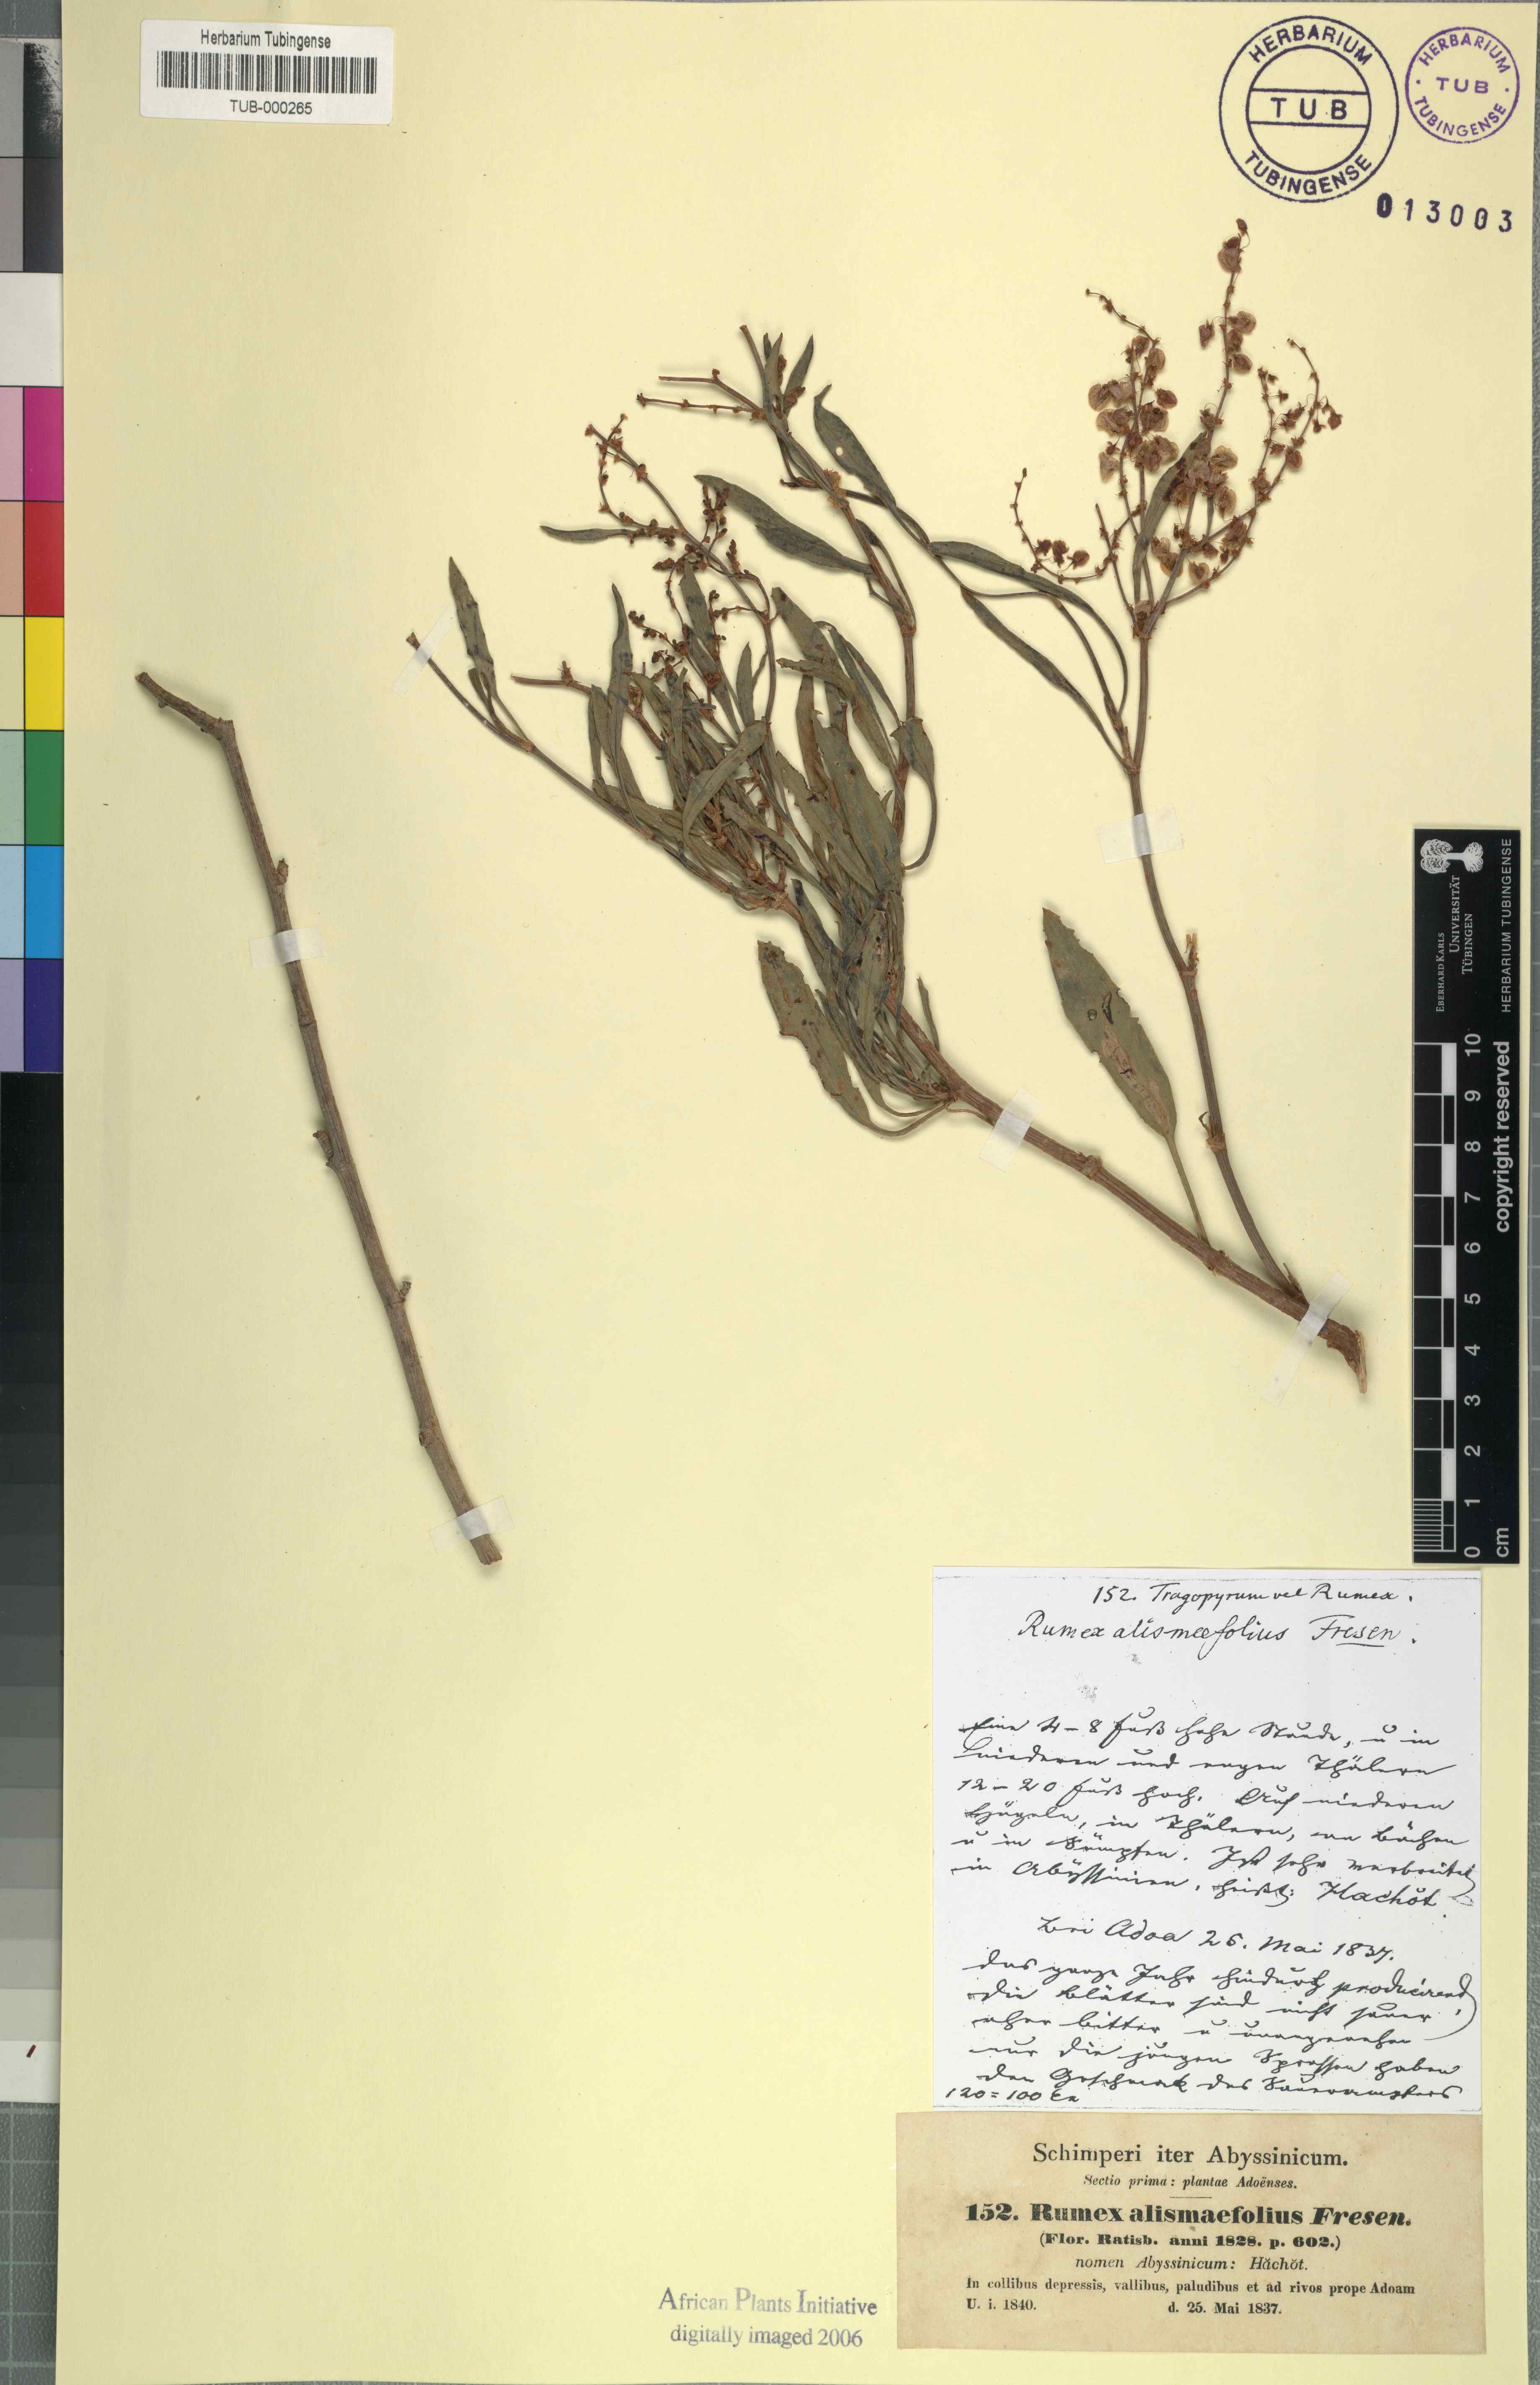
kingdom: Plantae
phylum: Tracheophyta
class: Magnoliopsida
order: Caryophyllales
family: Polygonaceae
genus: Rumex
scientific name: Rumex nervosus
